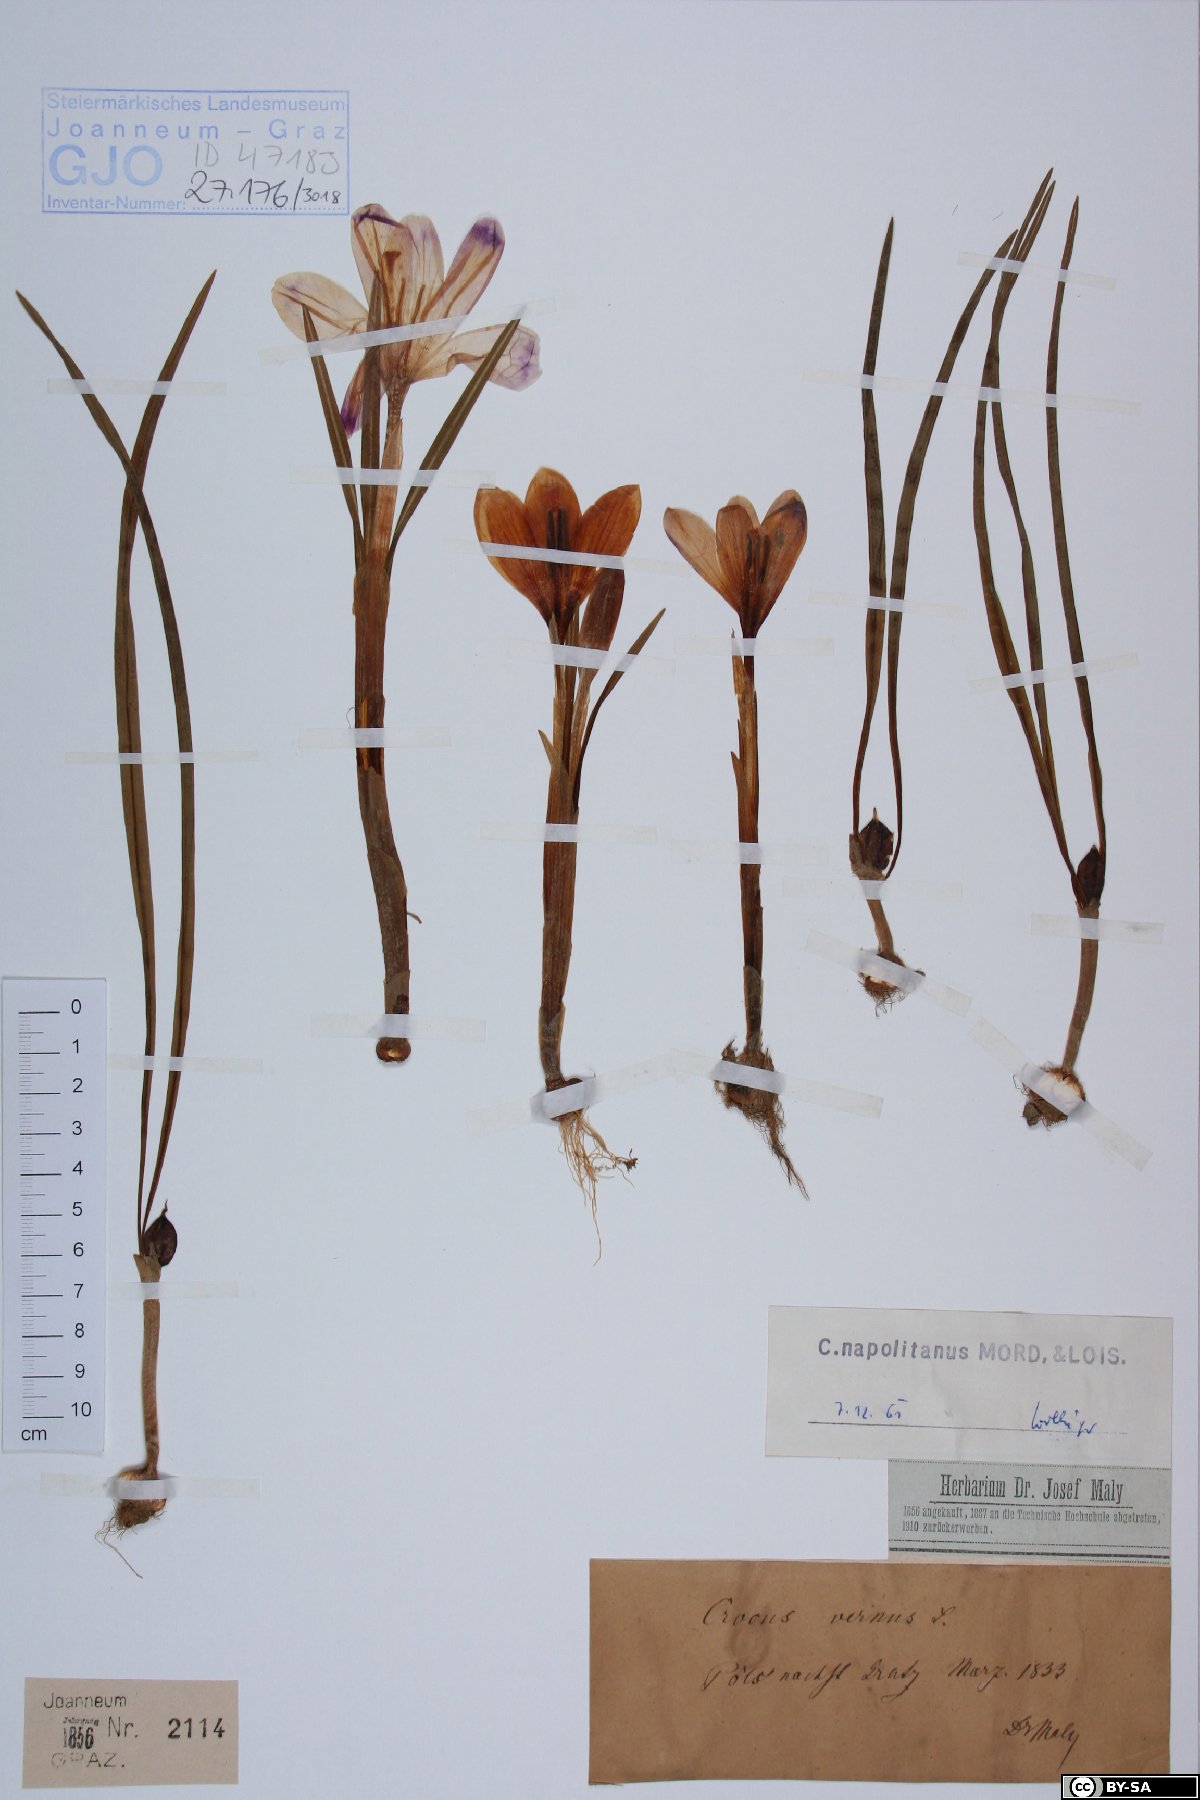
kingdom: Plantae
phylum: Tracheophyta
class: Liliopsida
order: Asparagales
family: Iridaceae
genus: Crocus
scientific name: Crocus vernus
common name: Spring crocus
